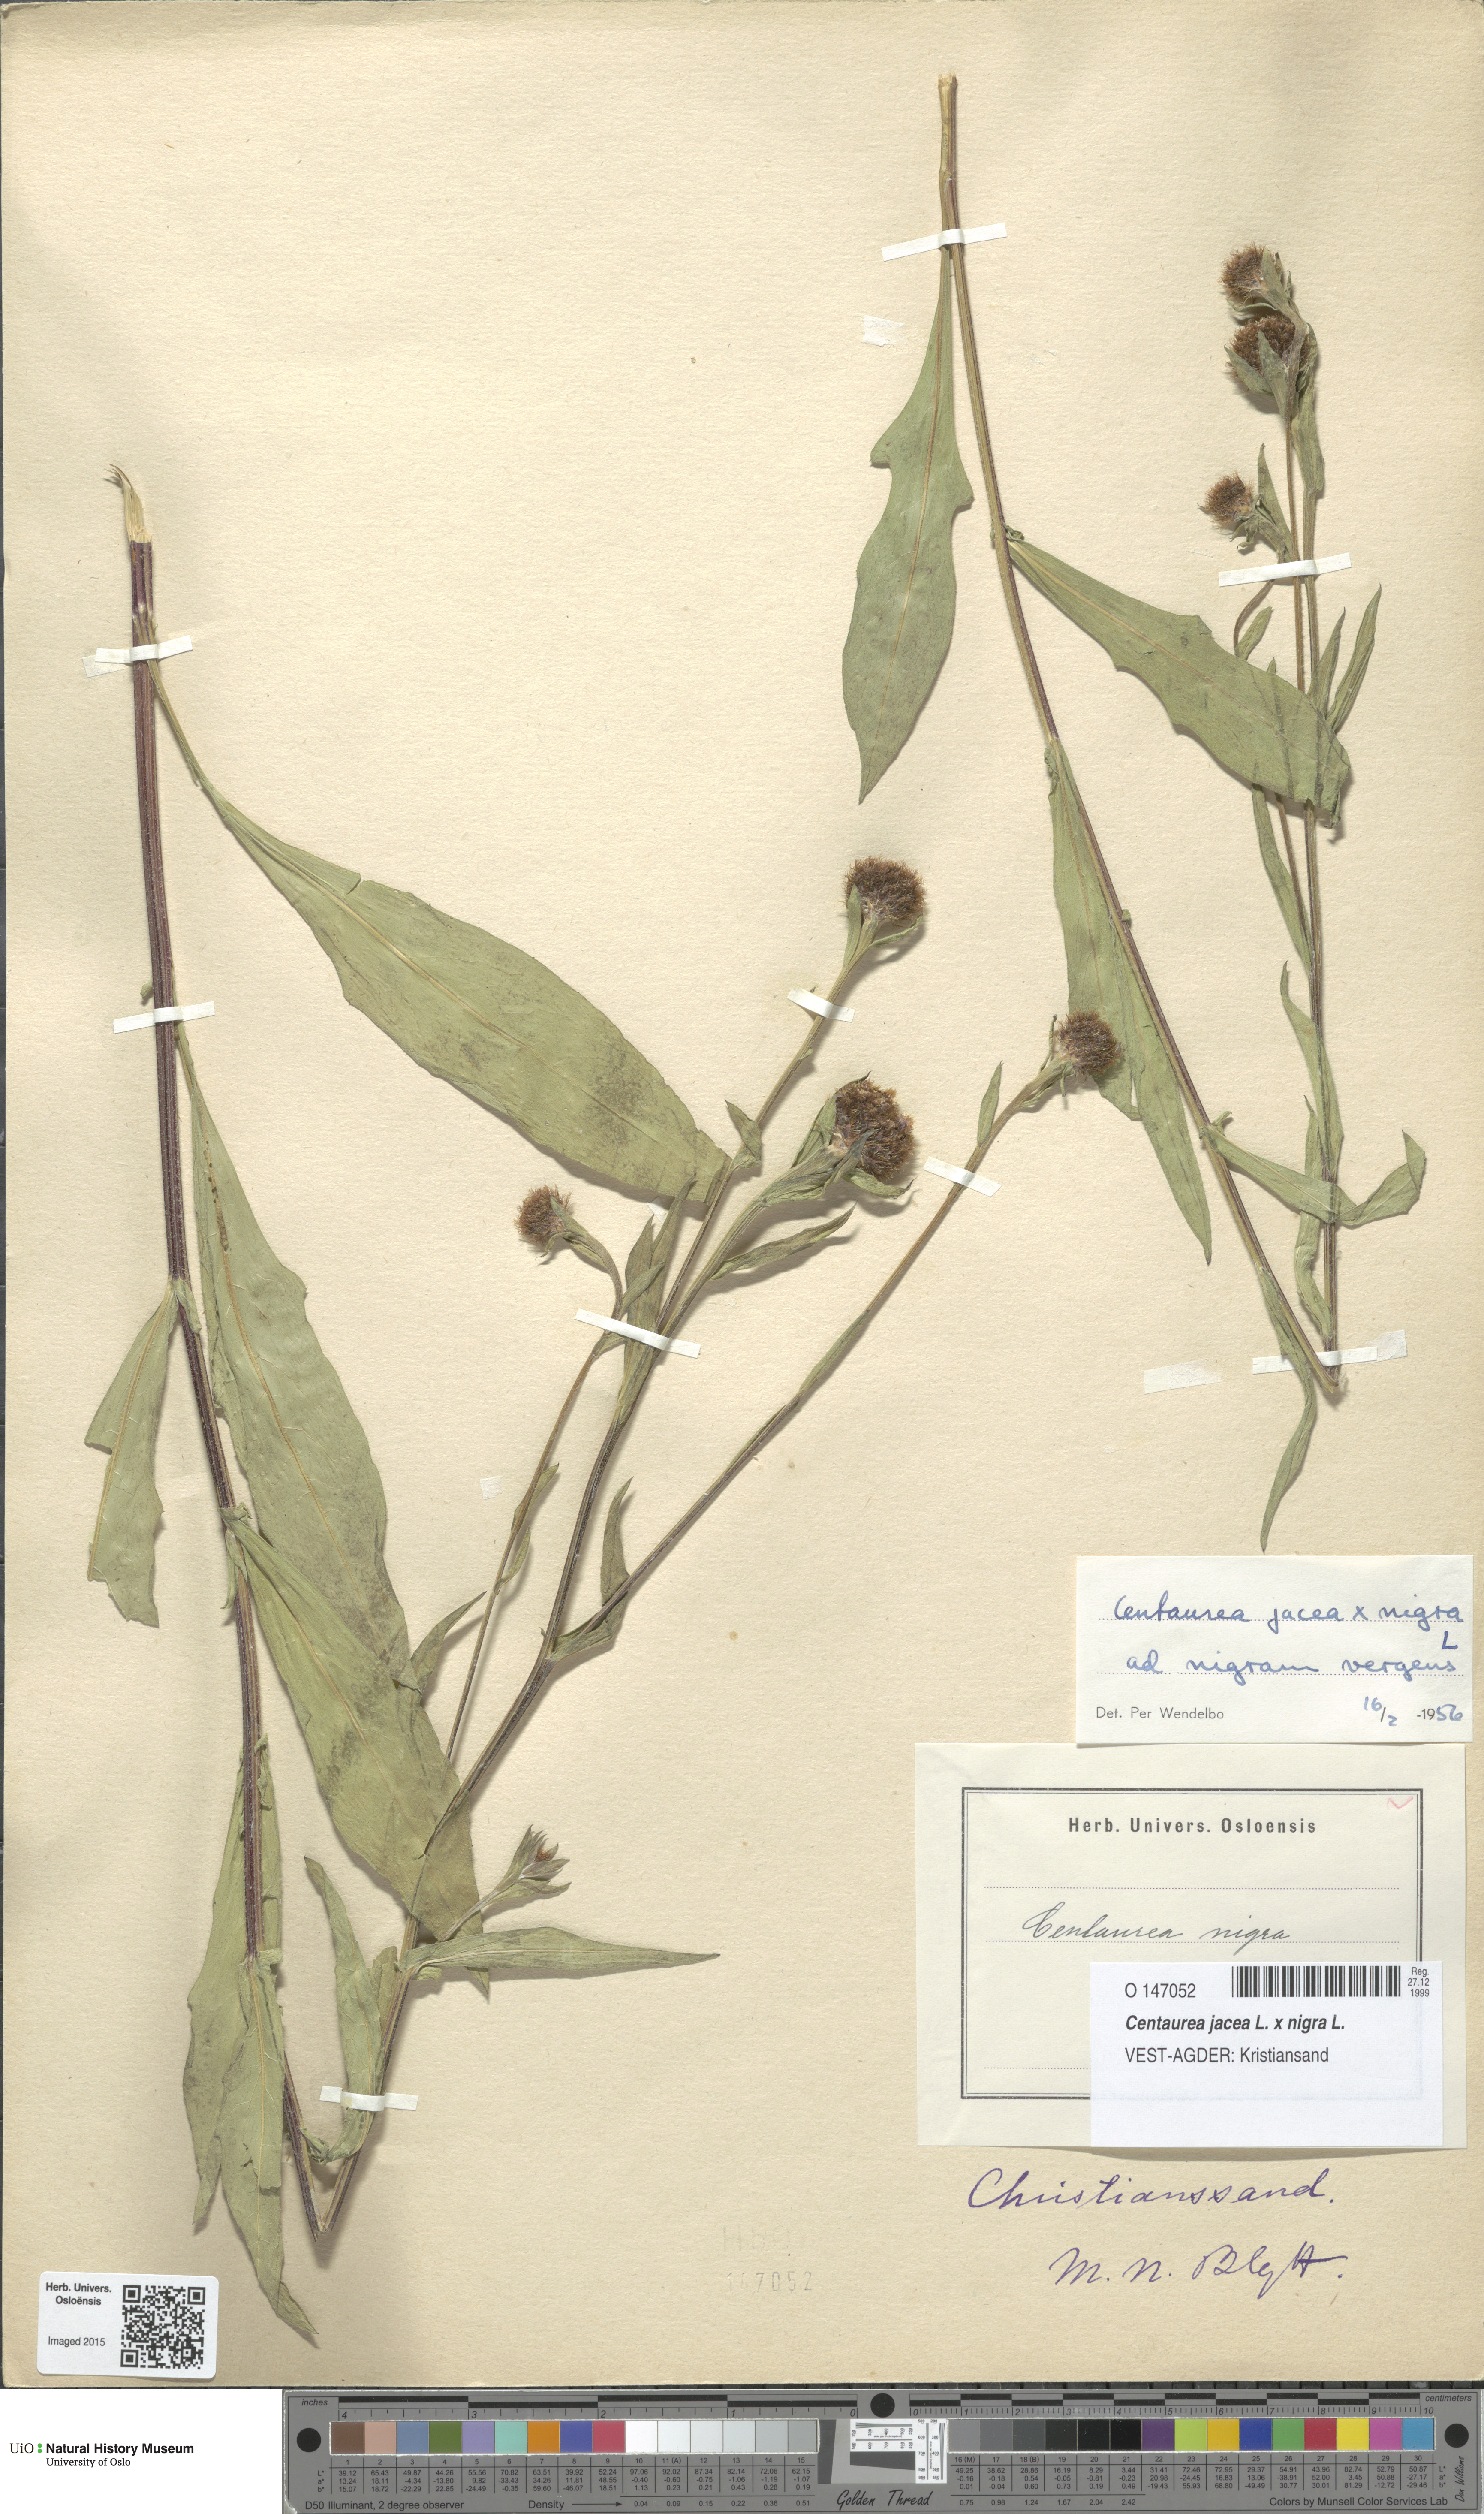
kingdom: Plantae
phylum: Tracheophyta
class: Magnoliopsida
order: Asterales
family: Asteraceae
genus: Centaurea
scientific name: Centaurea
